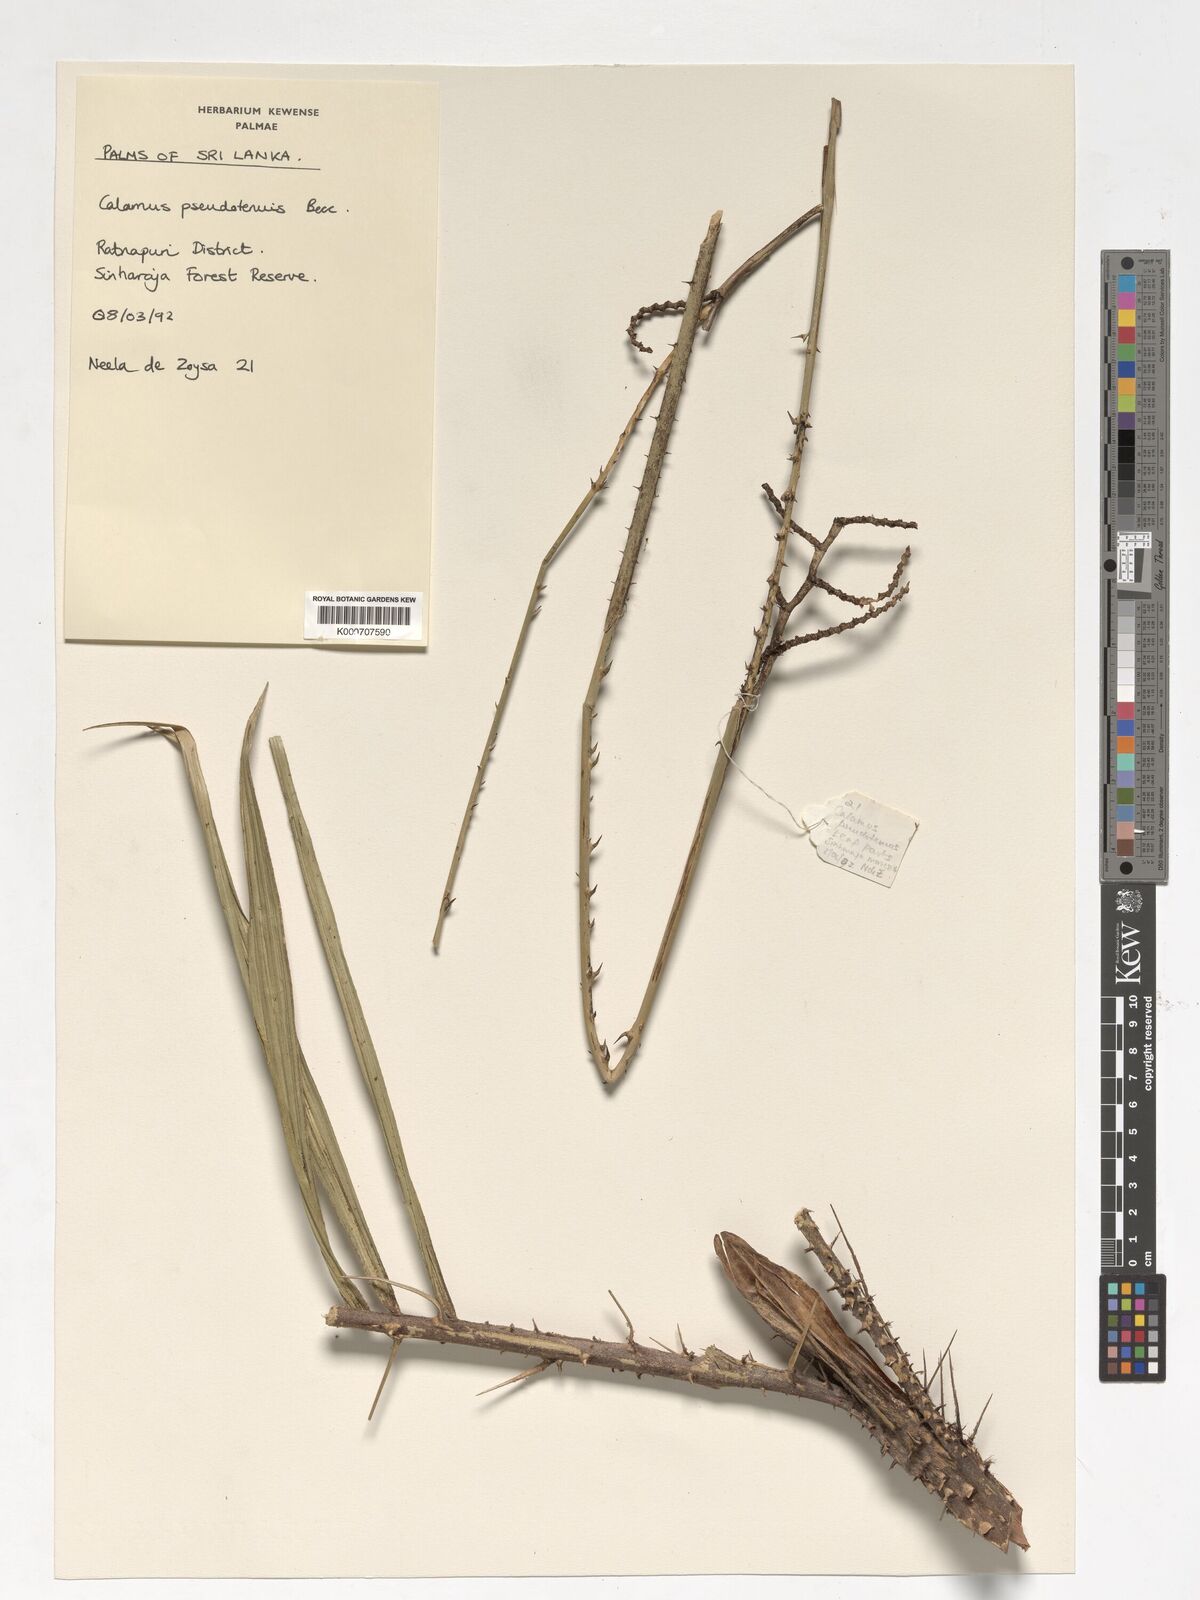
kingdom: Plantae
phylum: Tracheophyta
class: Liliopsida
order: Arecales
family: Arecaceae
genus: Calamus
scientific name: Calamus pseudotenuis
